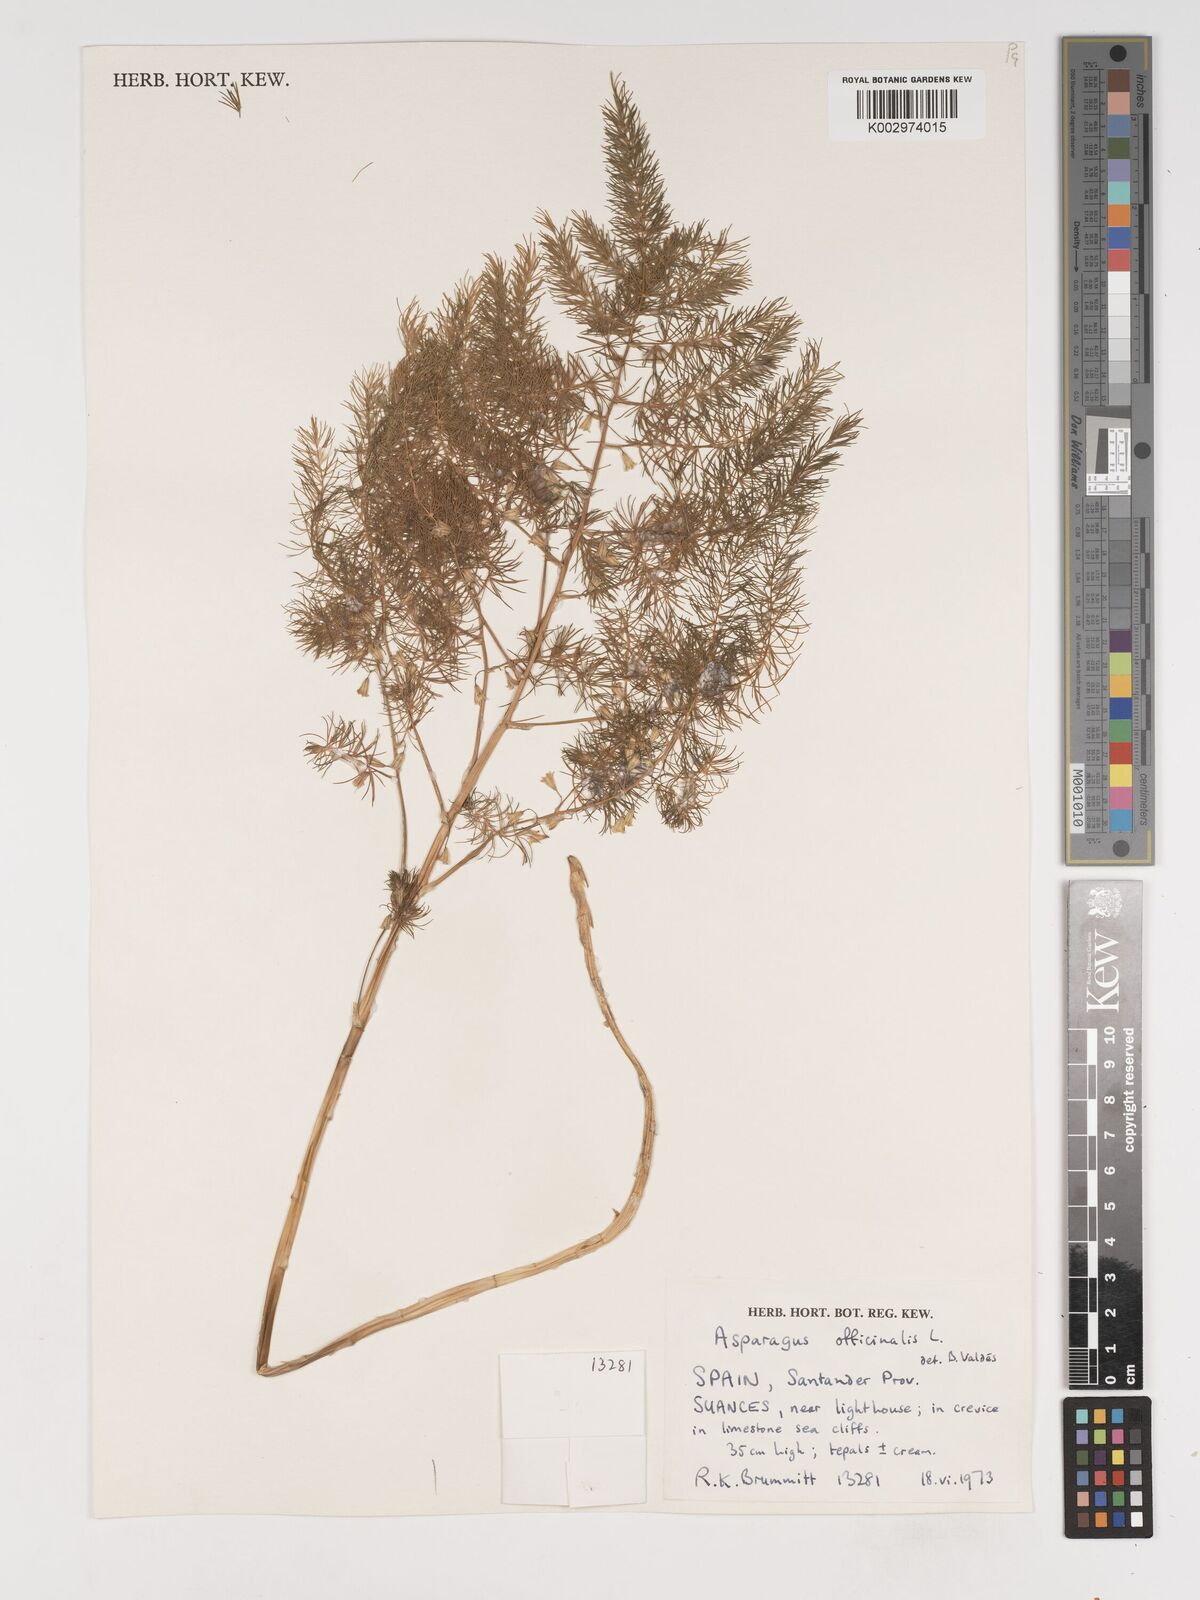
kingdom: Plantae
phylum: Tracheophyta
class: Liliopsida
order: Asparagales
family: Asparagaceae
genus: Asparagus
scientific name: Asparagus officinalis
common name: Garden asparagus
